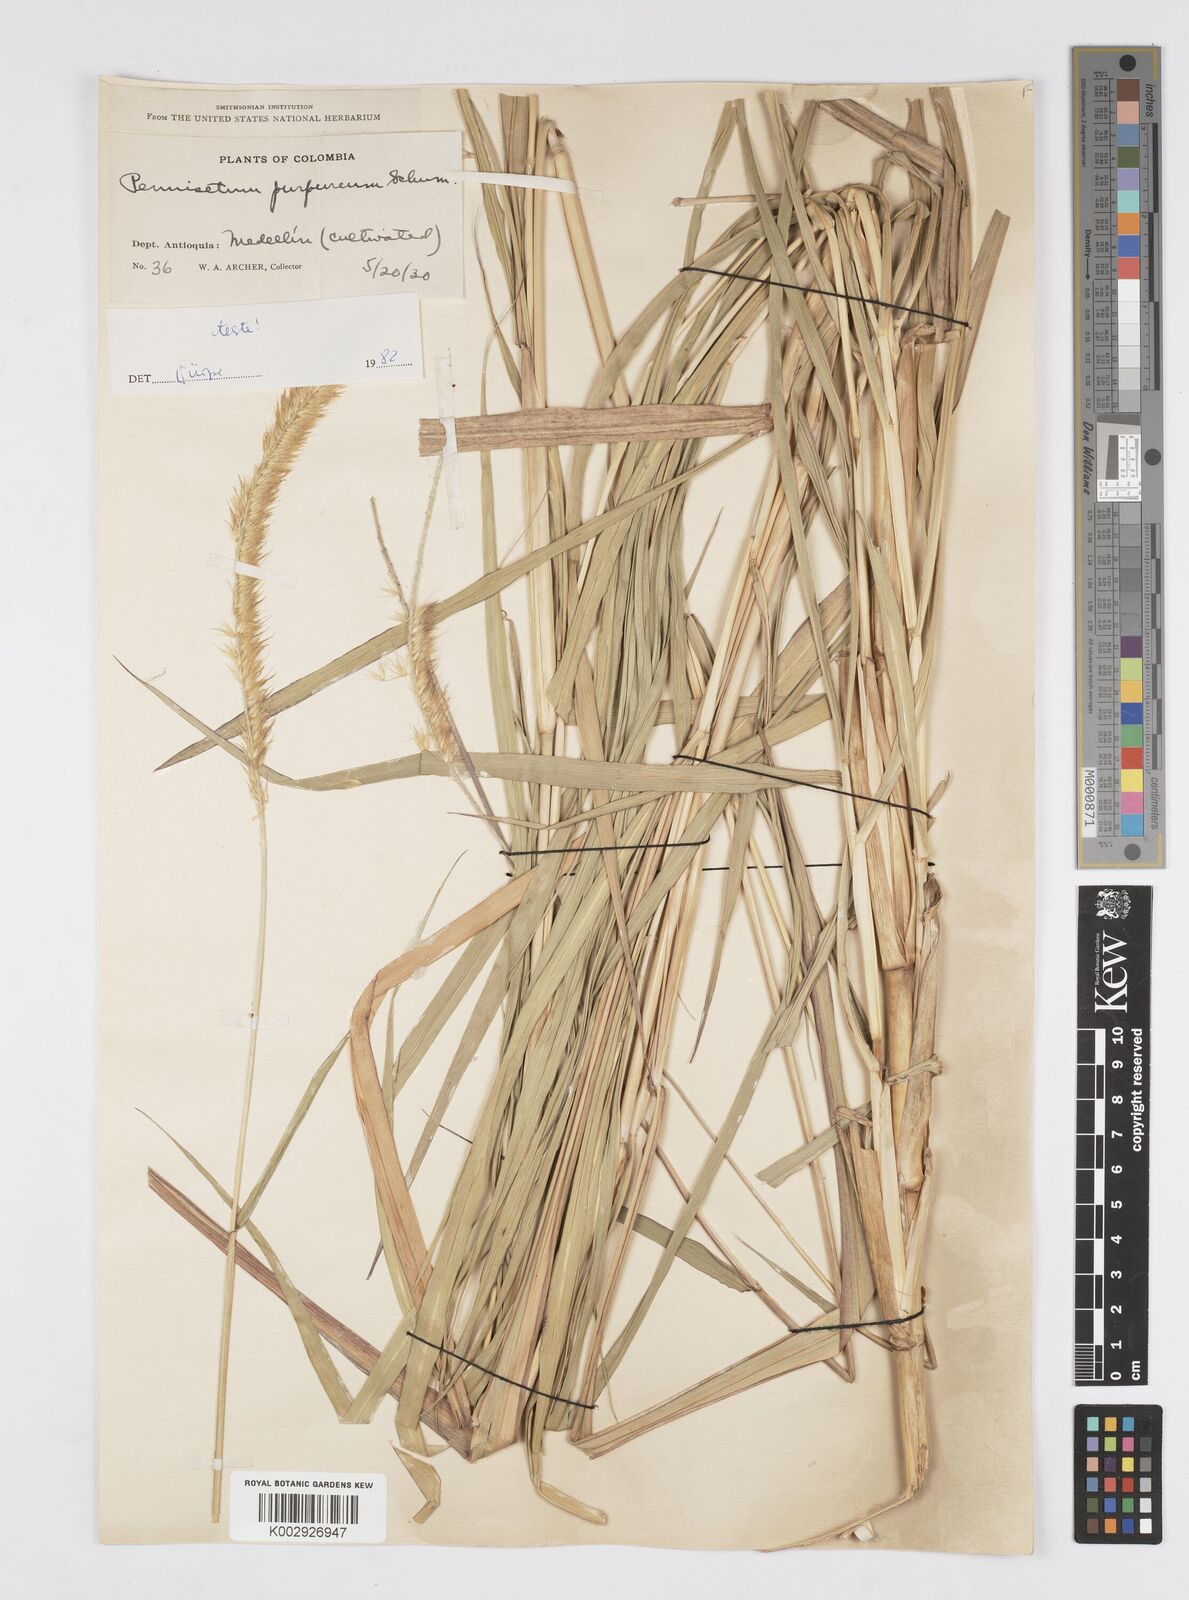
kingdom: Plantae
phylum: Tracheophyta
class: Liliopsida
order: Poales
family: Poaceae
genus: Cenchrus
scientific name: Cenchrus purpureus
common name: Elephant grass
